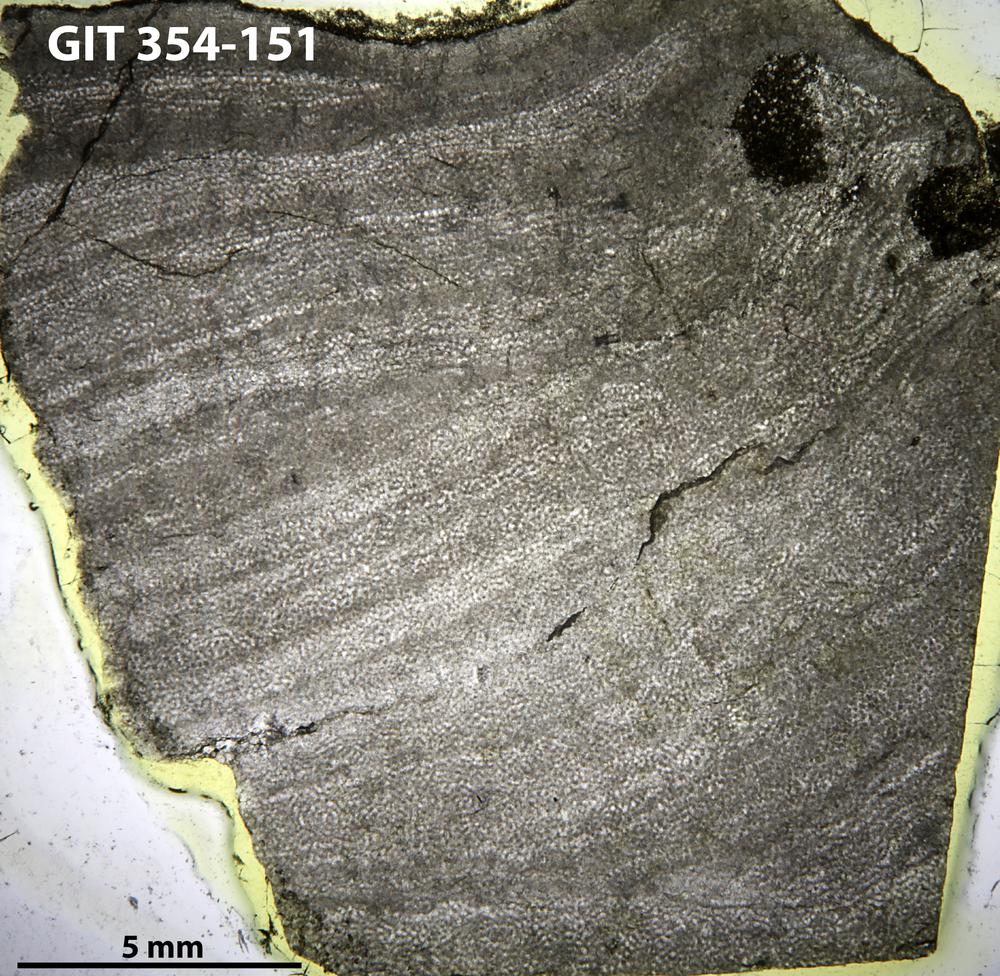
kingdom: Animalia
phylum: Porifera
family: Ecclimadictyidae
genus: Ecclimadictyon
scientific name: Ecclimadictyon Clathrodictyon microvesiculosum
